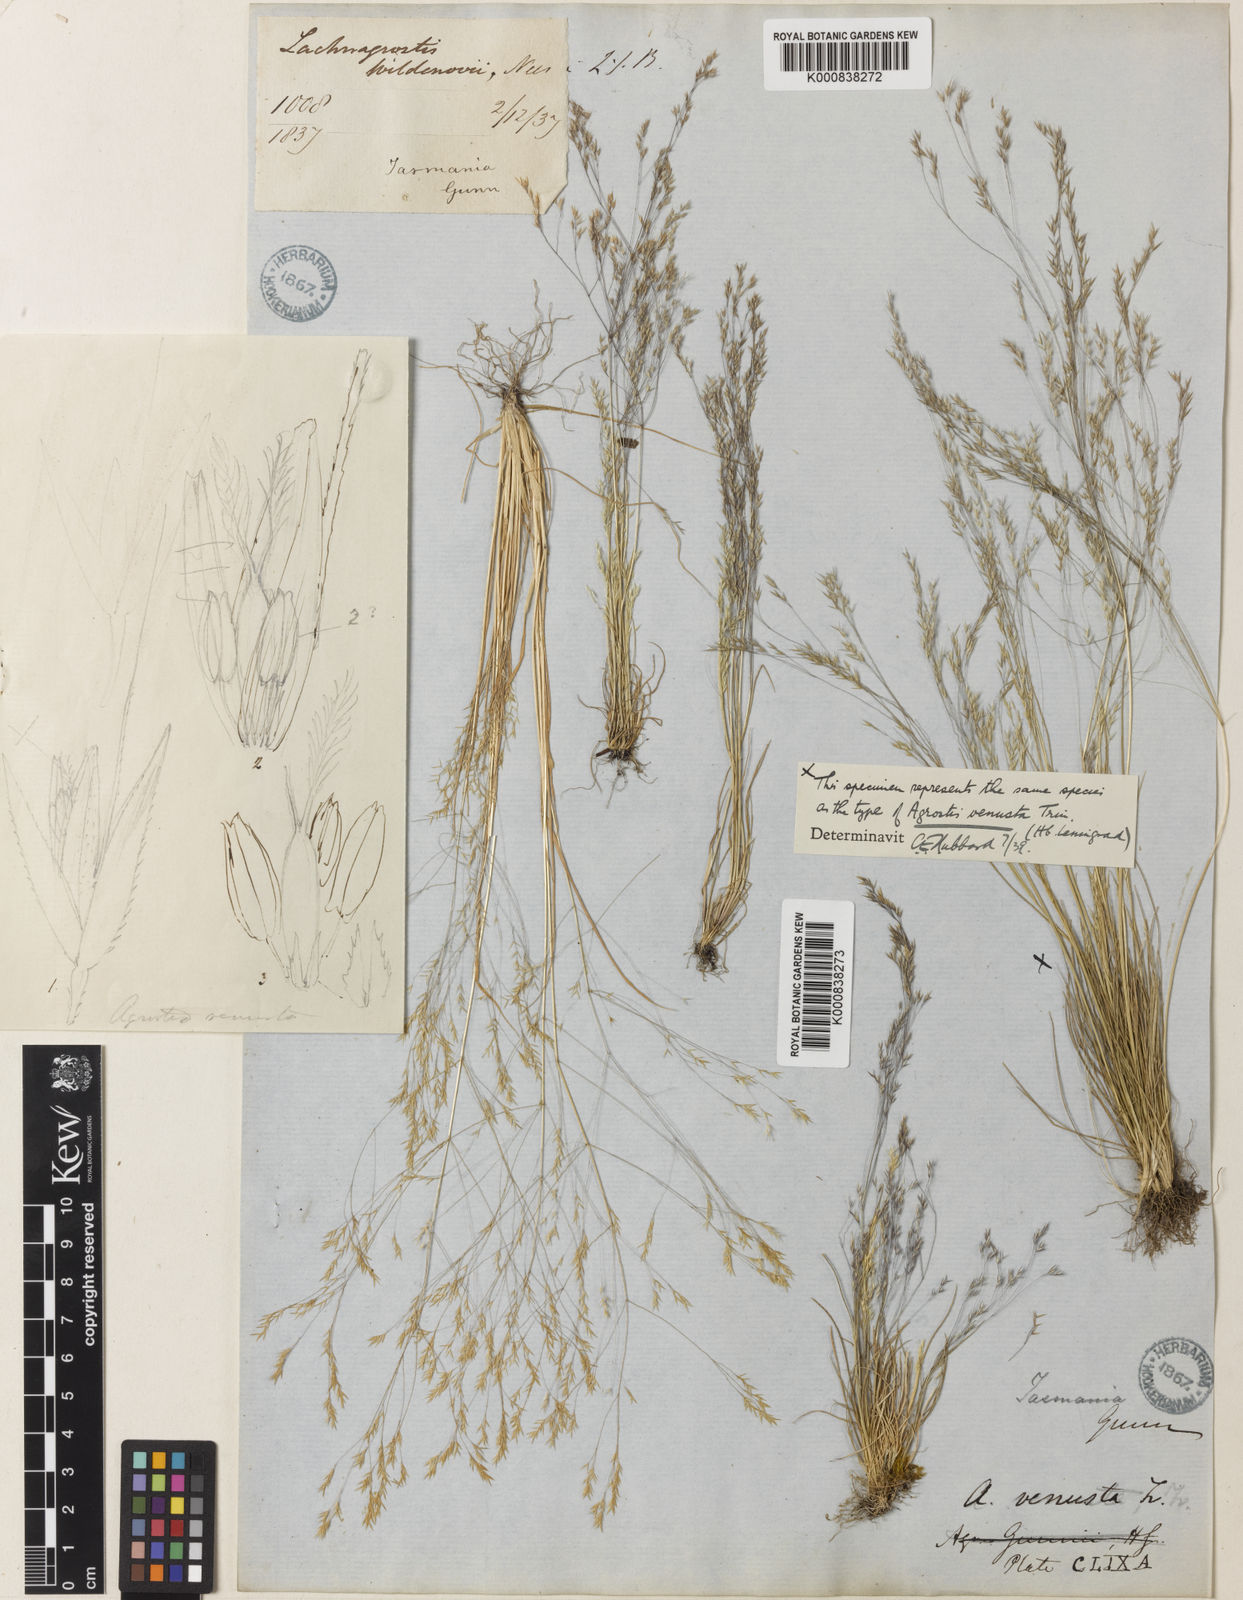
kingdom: Plantae
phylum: Tracheophyta
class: Liliopsida
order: Poales
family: Poaceae
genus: Agrostis
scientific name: Agrostis venusta
